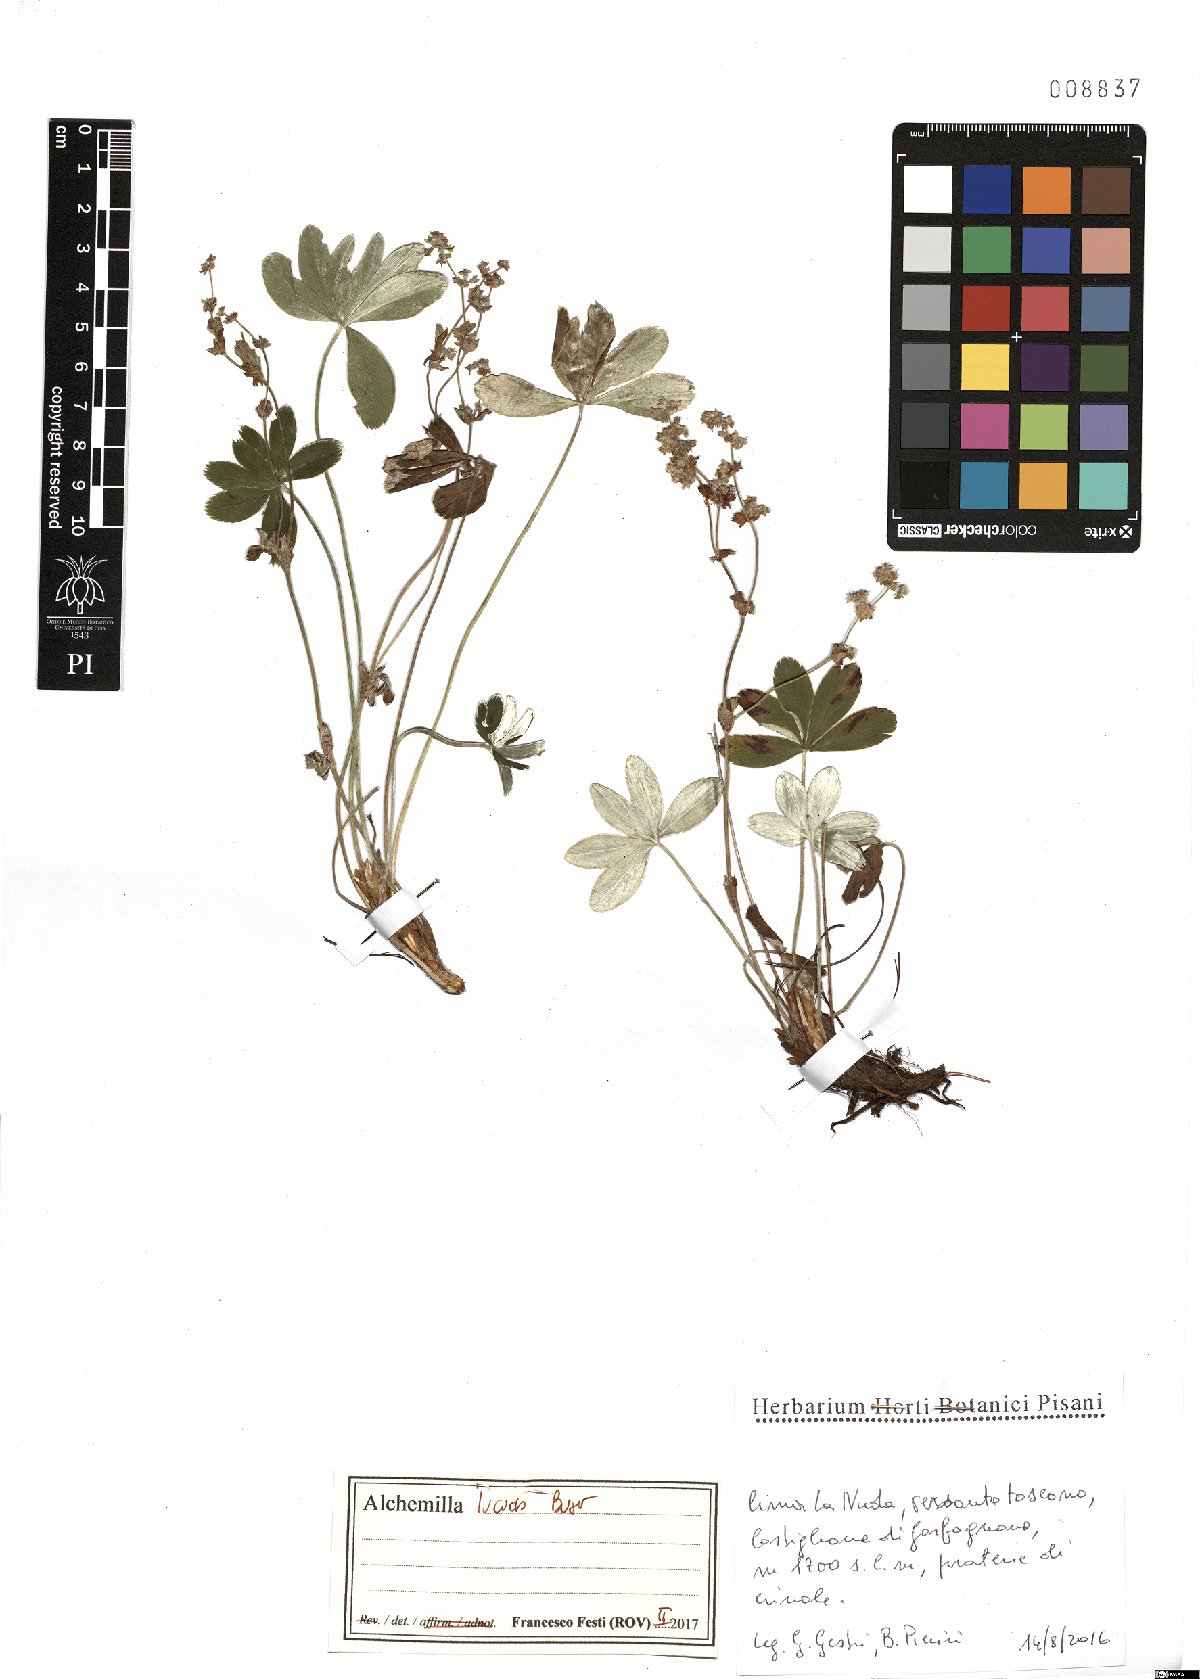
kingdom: Plantae
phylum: Tracheophyta
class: Magnoliopsida
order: Rosales
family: Rosaceae
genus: Alchemilla
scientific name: Alchemilla lucida
